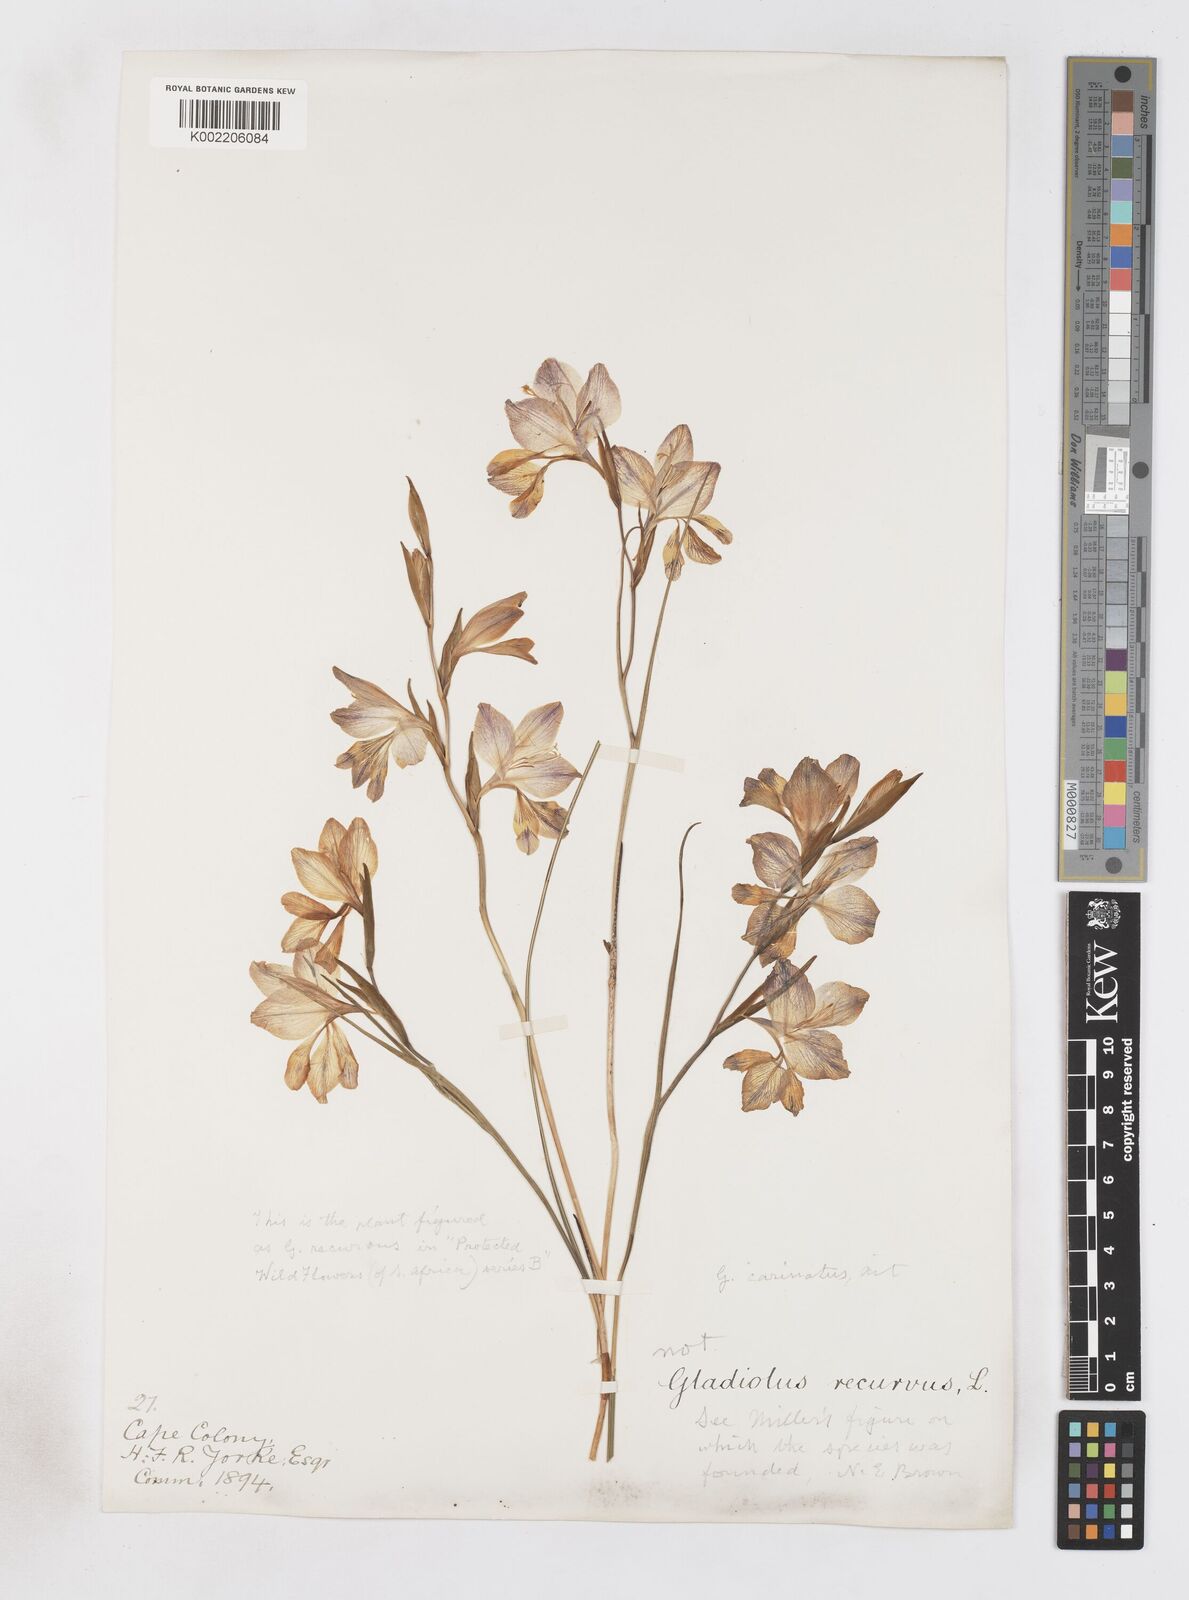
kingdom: Plantae
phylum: Tracheophyta
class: Liliopsida
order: Asparagales
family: Iridaceae
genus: Gladiolus
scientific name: Gladiolus carinatus
